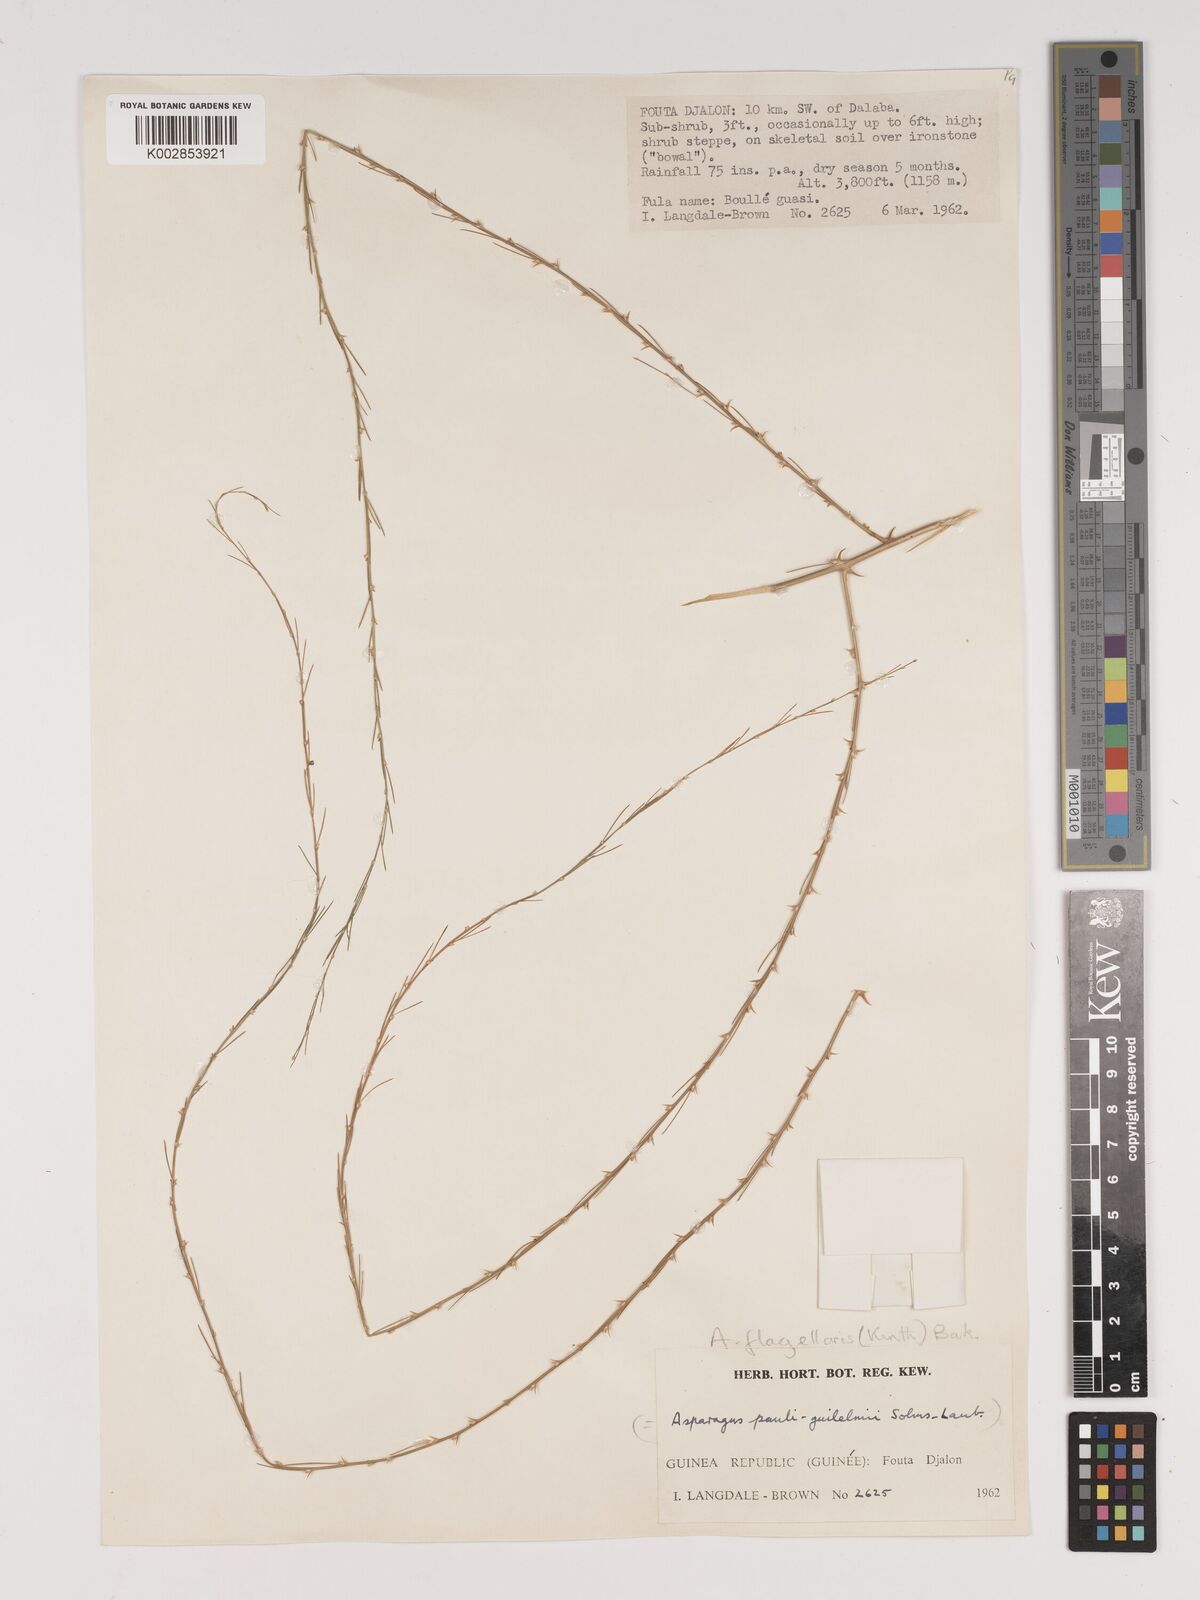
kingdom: Plantae
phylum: Tracheophyta
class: Liliopsida
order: Asparagales
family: Asparagaceae
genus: Asparagus
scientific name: Asparagus flagellaris
